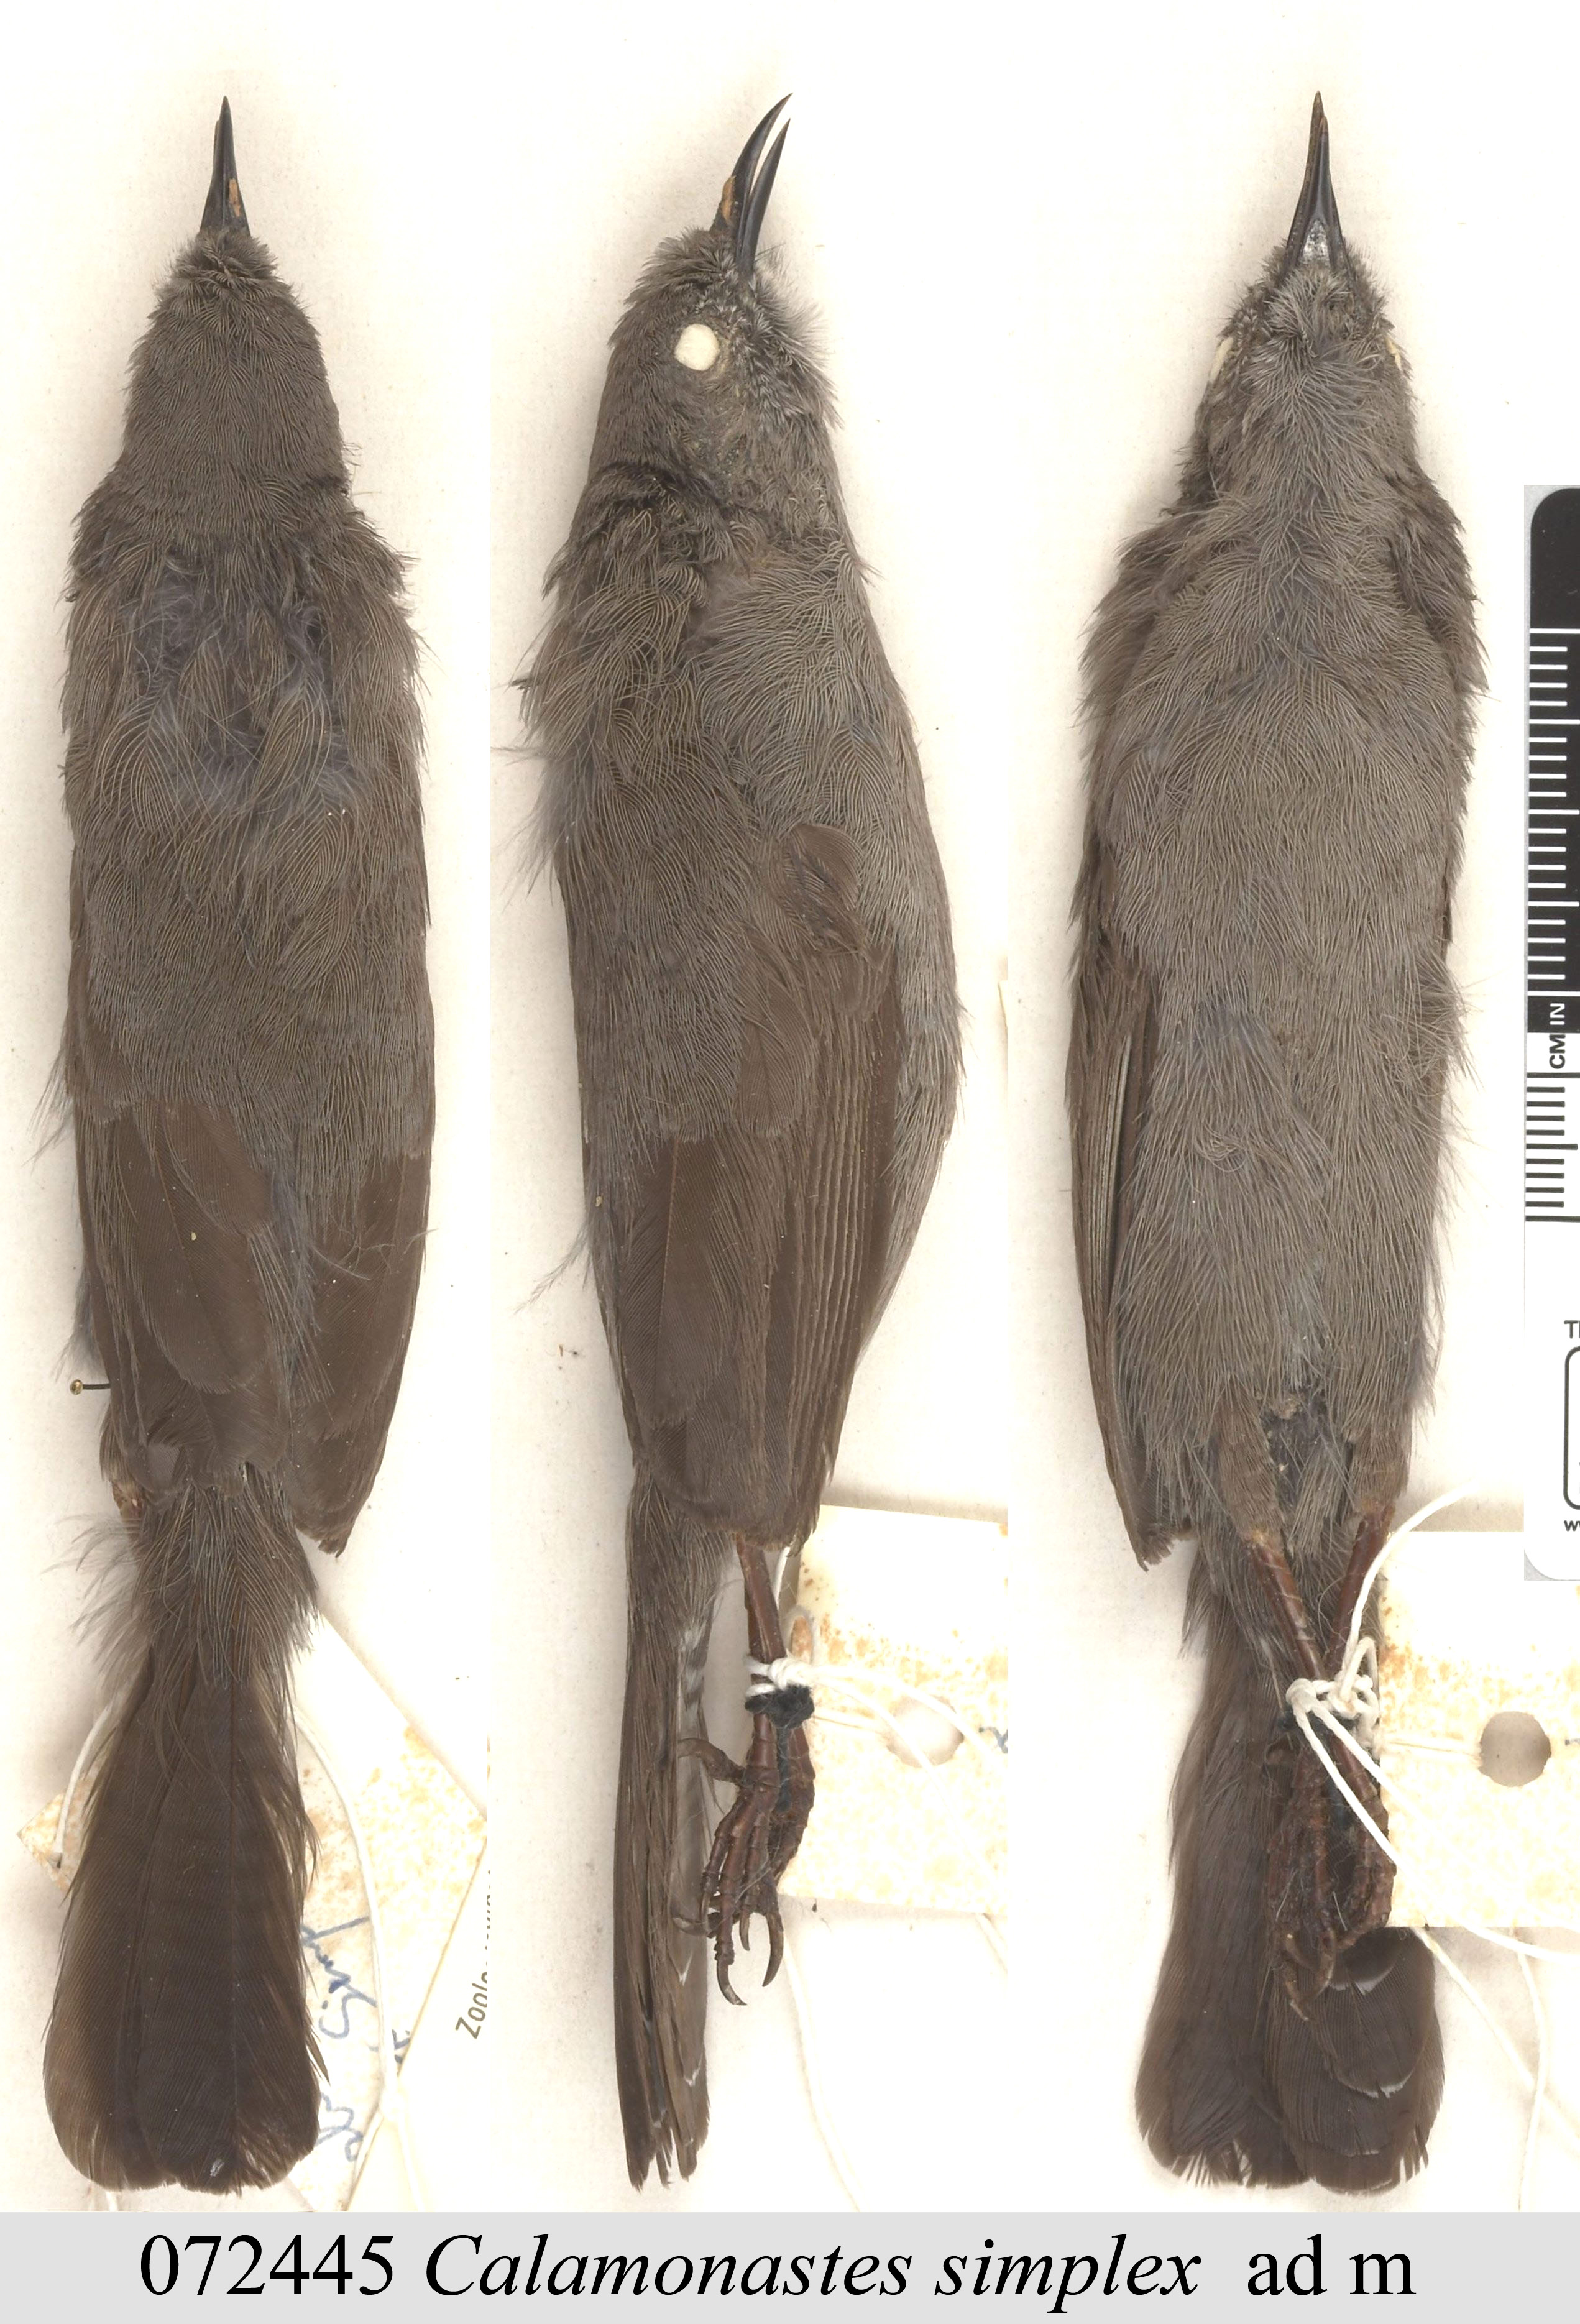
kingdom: Animalia
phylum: Chordata
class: Aves
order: Passeriformes
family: Cisticolidae
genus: Calamonastes
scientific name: Calamonastes simplex
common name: Grey wren-warbler
